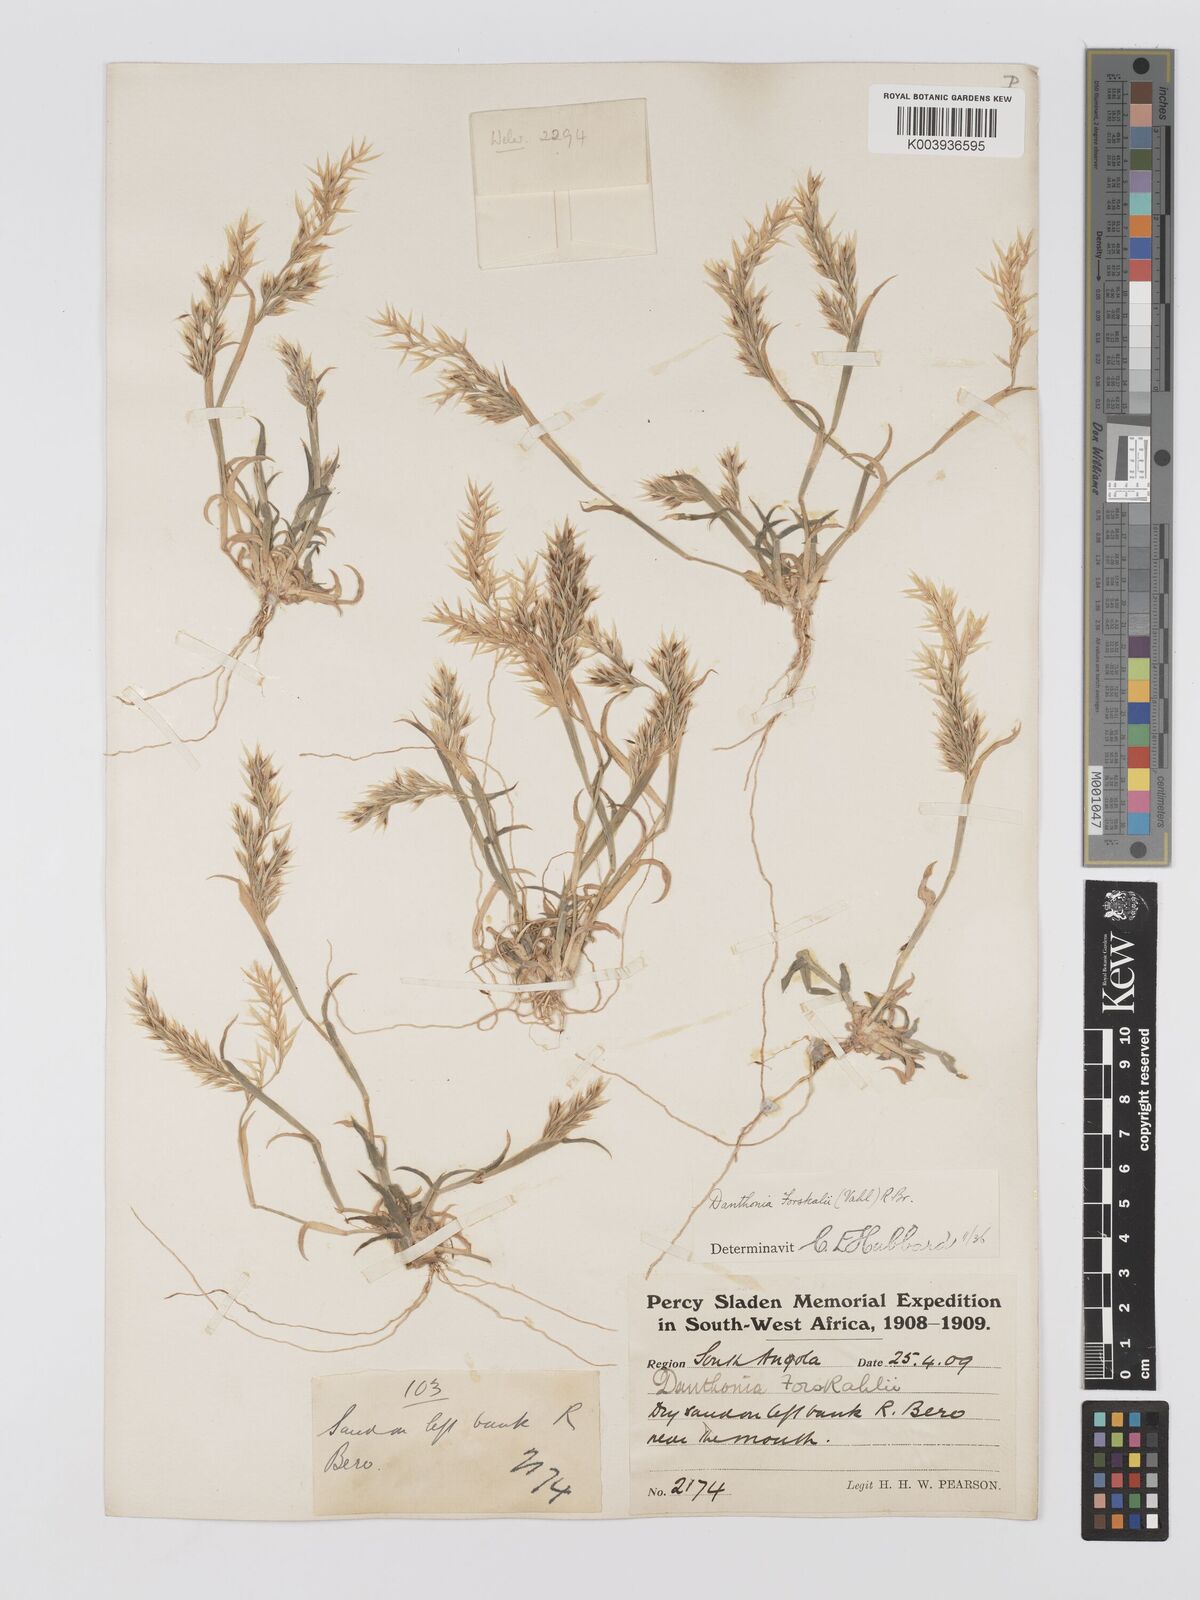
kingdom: Plantae
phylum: Tracheophyta
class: Liliopsida
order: Poales
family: Poaceae
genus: Centropodia
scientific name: Centropodia forskaolii
